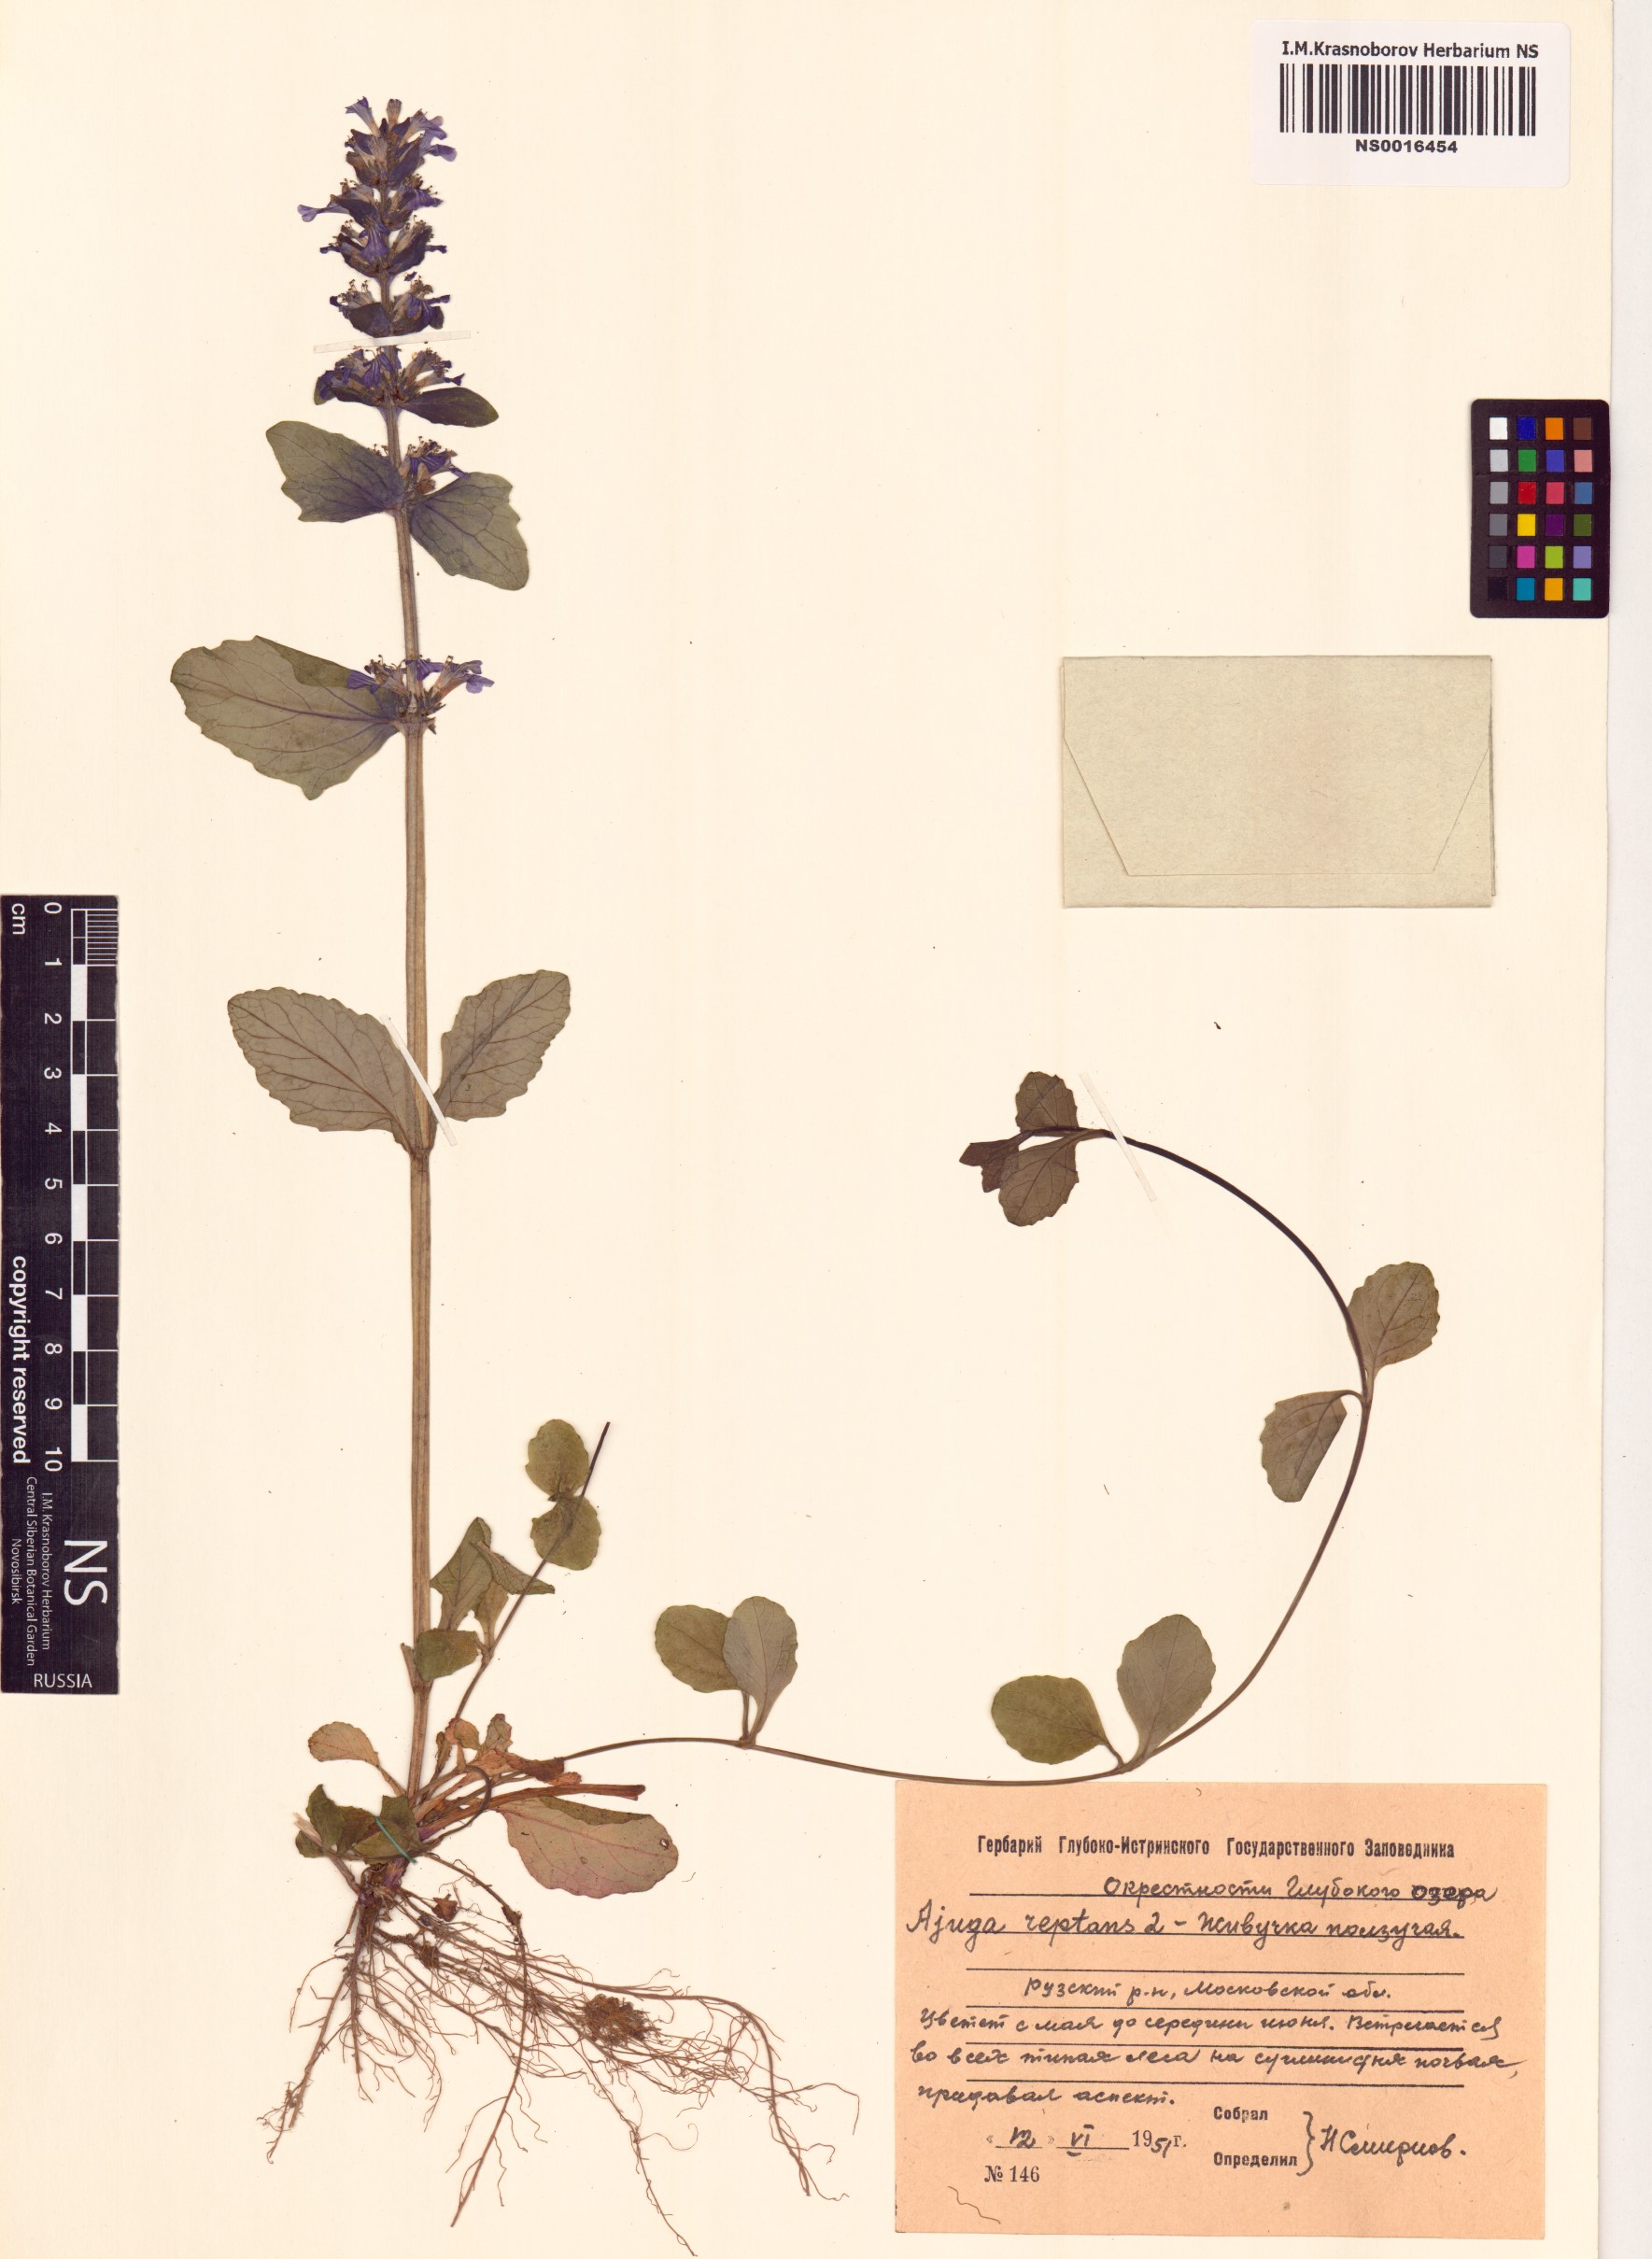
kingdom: Plantae
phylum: Tracheophyta
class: Magnoliopsida
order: Lamiales
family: Lamiaceae
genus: Ajuga
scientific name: Ajuga reptans
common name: Bugle
